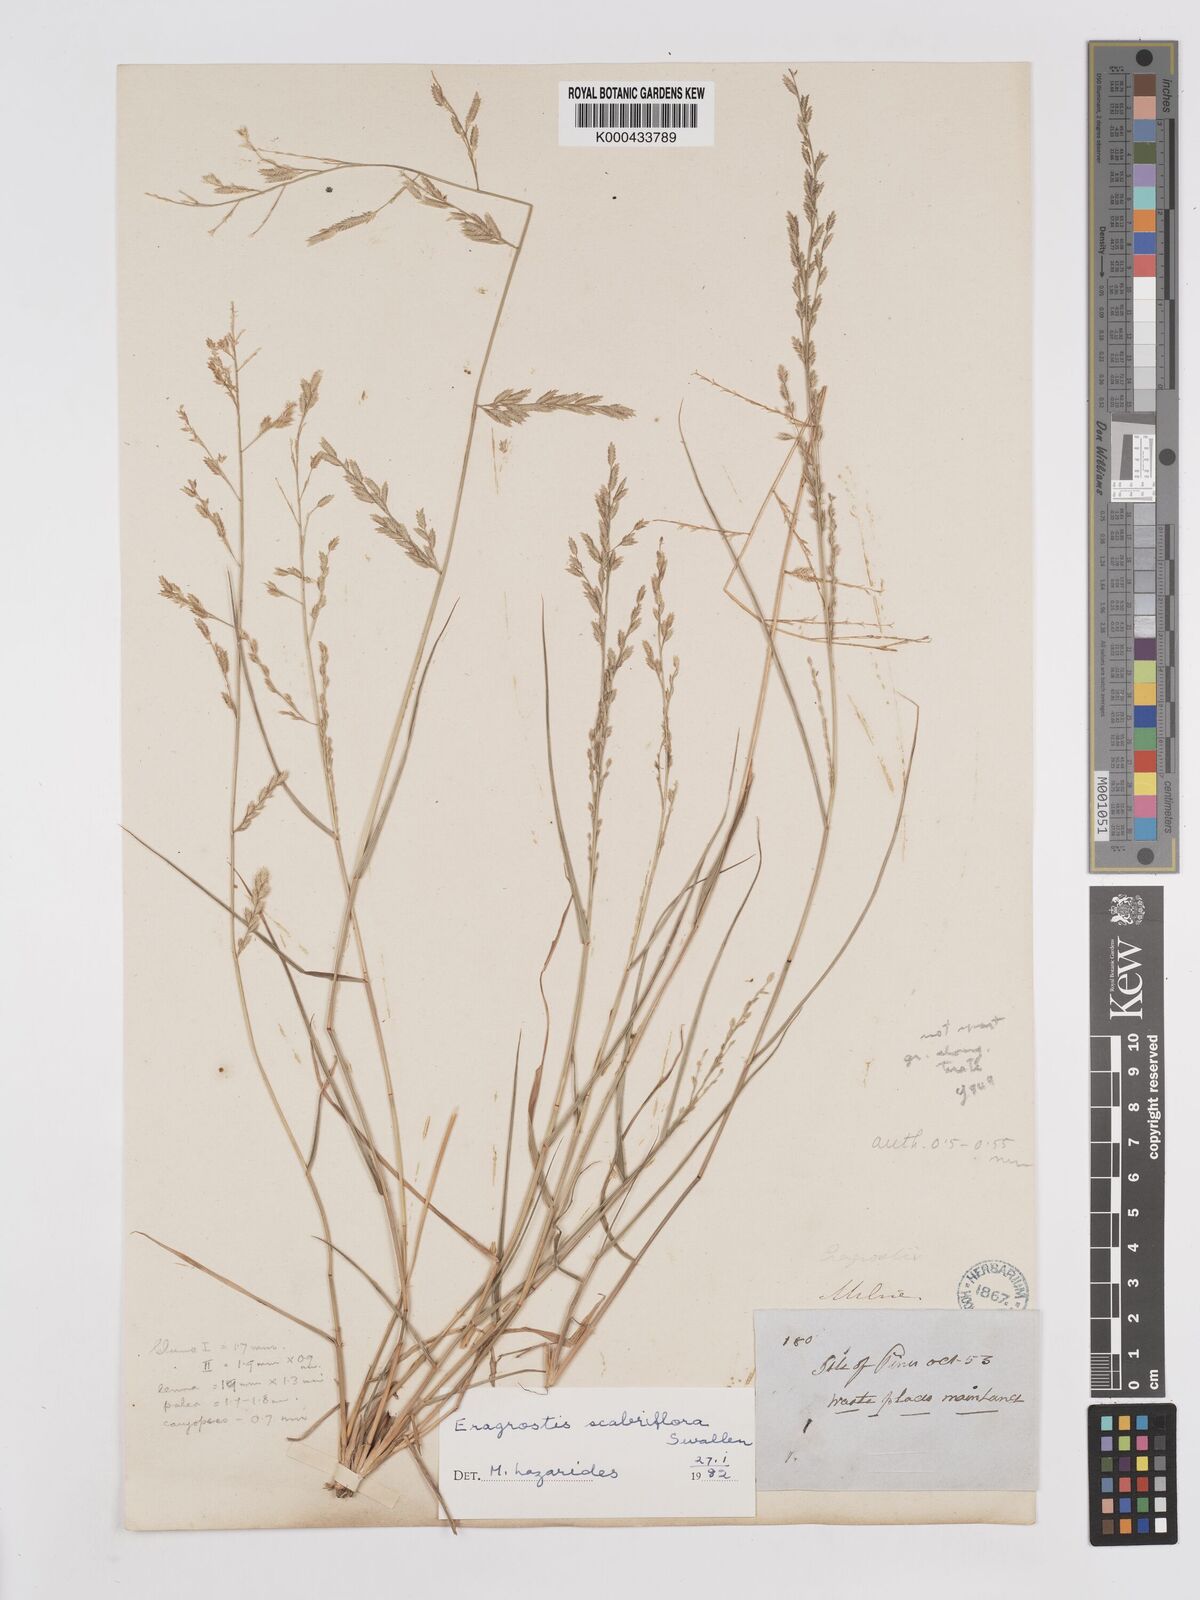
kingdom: Plantae
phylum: Tracheophyta
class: Liliopsida
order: Poales
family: Poaceae
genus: Eragrostis
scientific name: Eragrostis scabriflora
